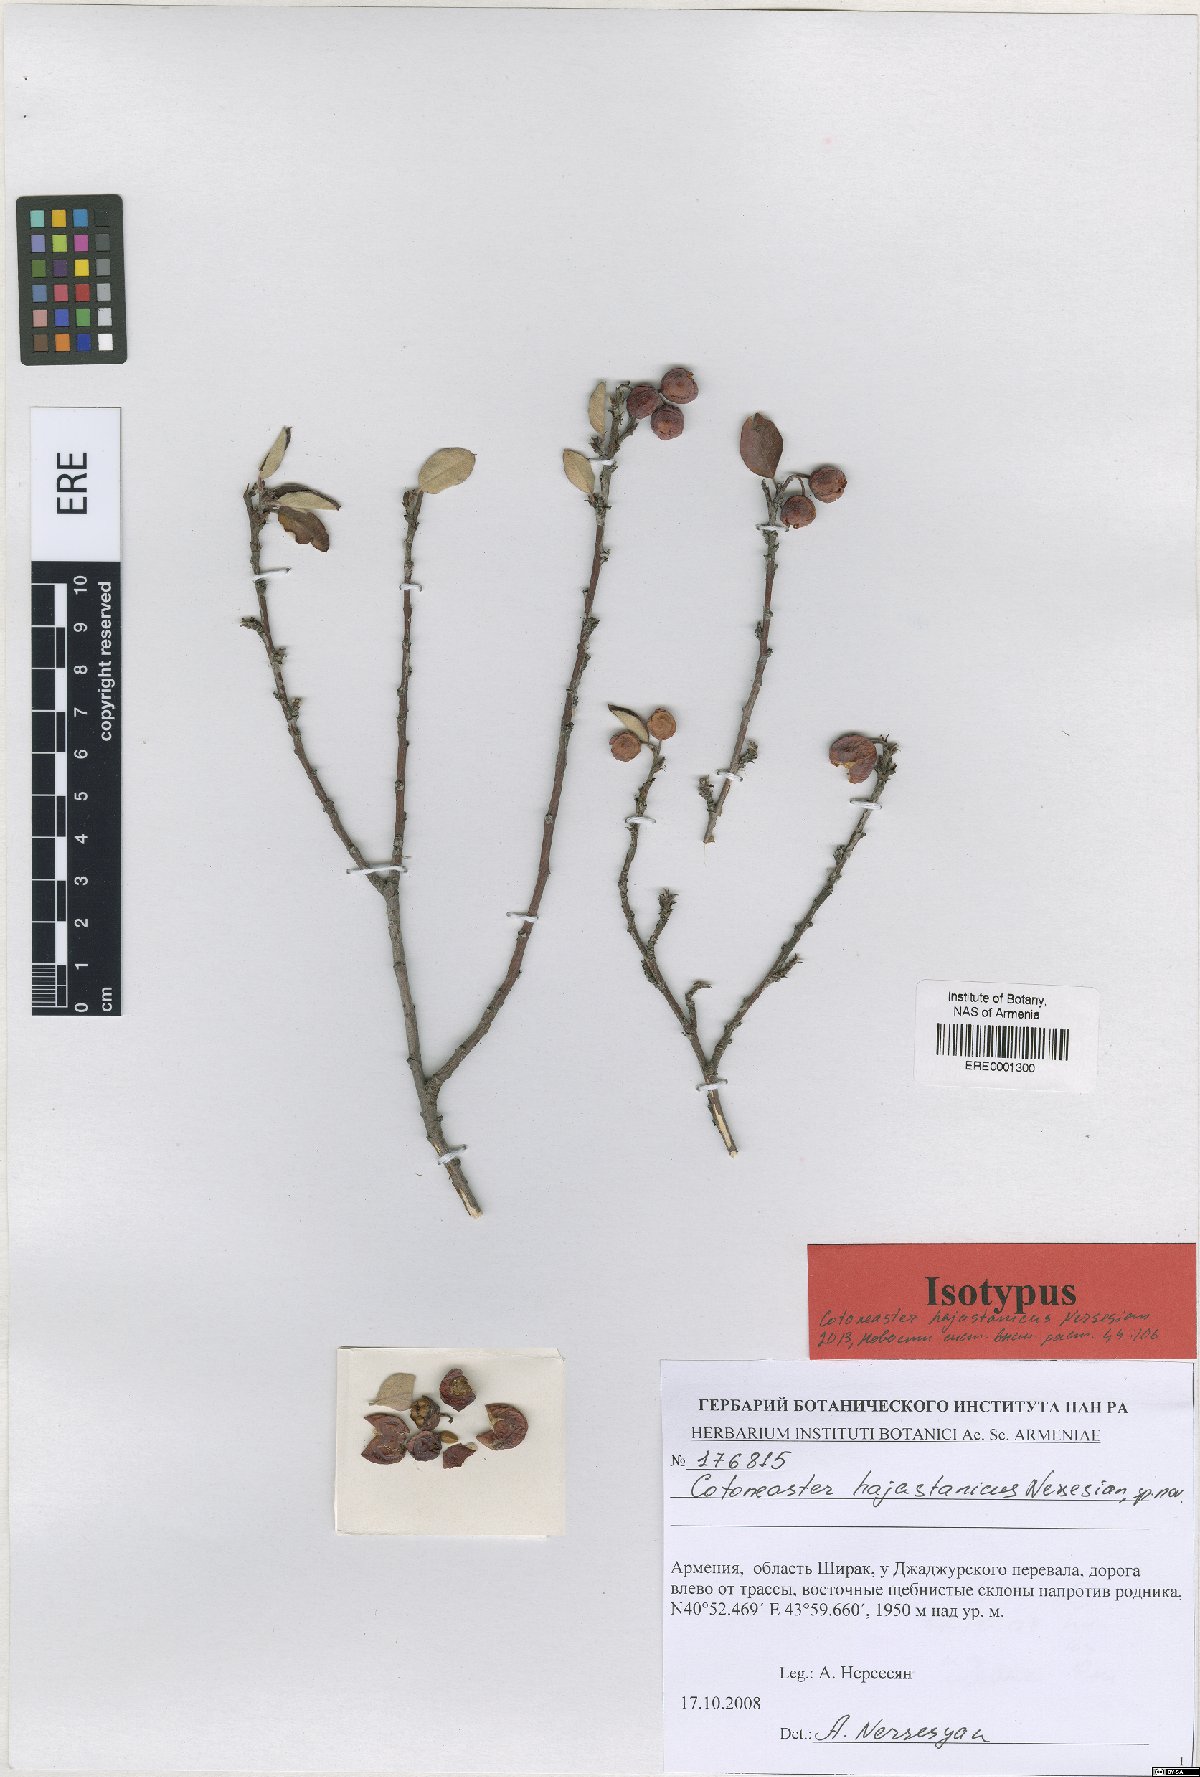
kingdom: Plantae
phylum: Tracheophyta
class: Magnoliopsida
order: Rosales
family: Rosaceae
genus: Cotoneaster
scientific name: Cotoneaster hajastanicus
